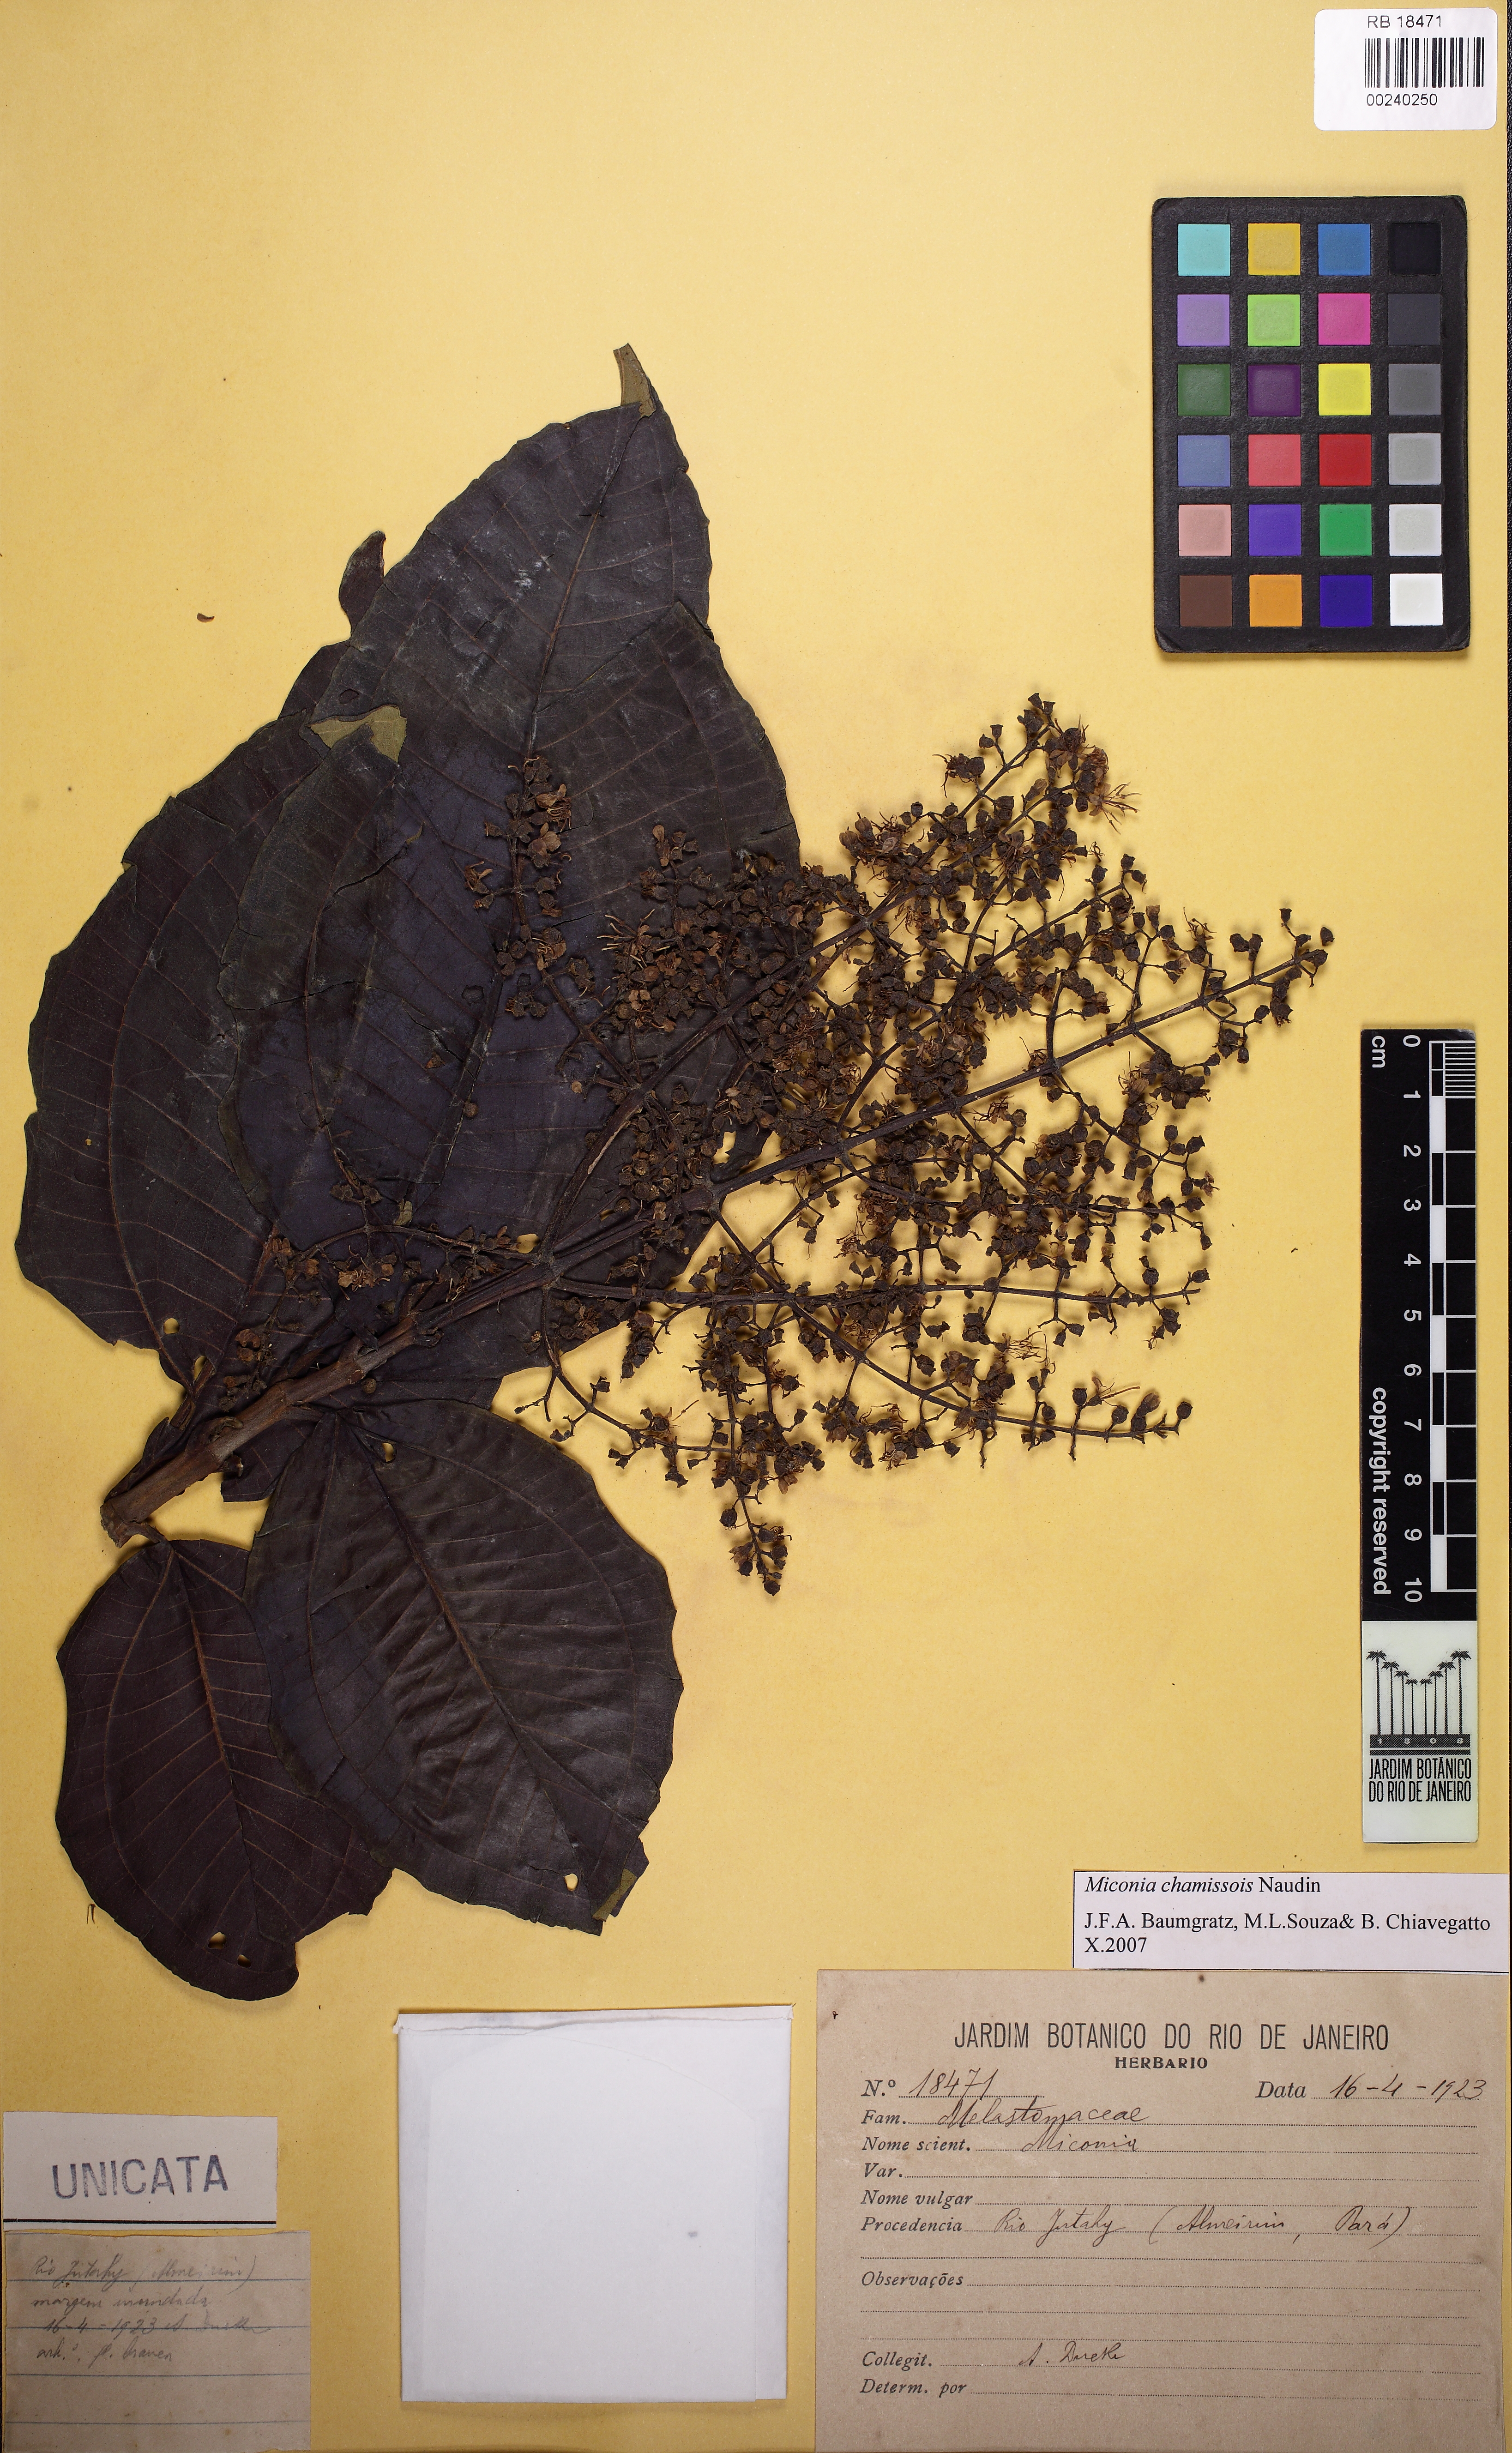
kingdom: Plantae
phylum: Tracheophyta
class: Magnoliopsida
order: Myrtales
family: Melastomataceae
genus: Miconia
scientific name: Miconia chamissois
